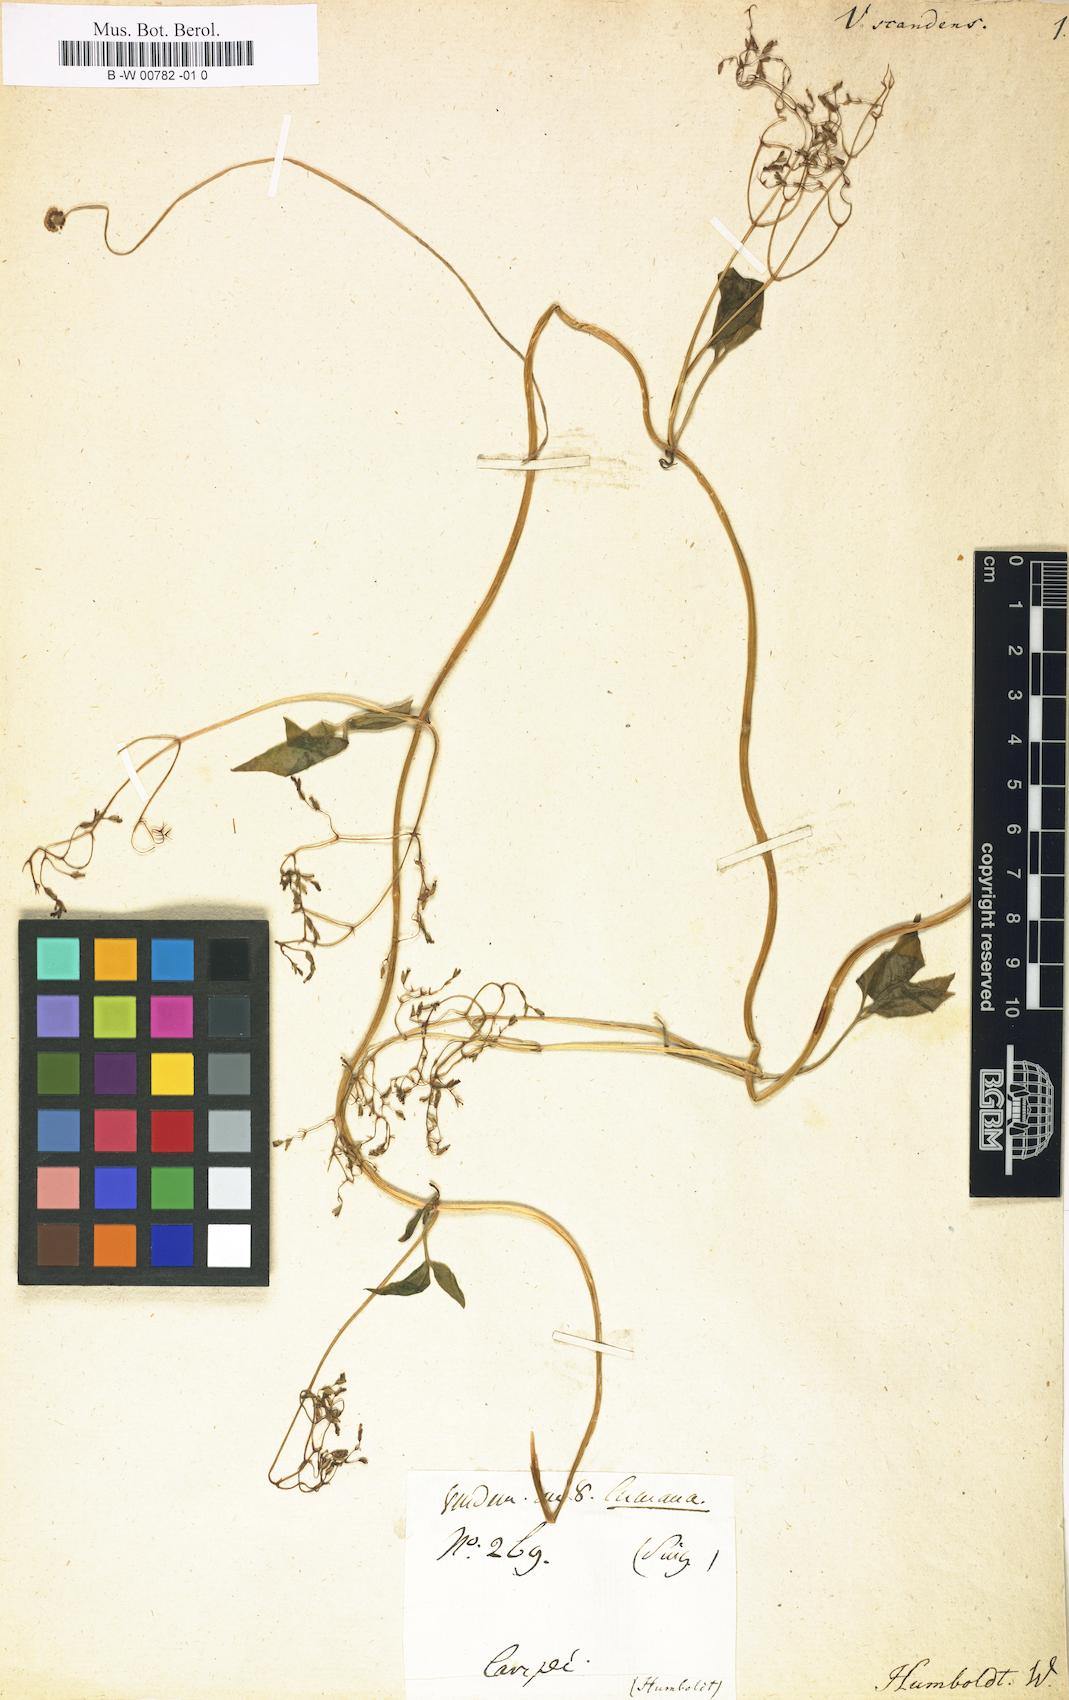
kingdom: Plantae
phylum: Tracheophyta
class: Magnoliopsida
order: Dipsacales
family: Caprifoliaceae
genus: Valeriana
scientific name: Valeriana scandens
